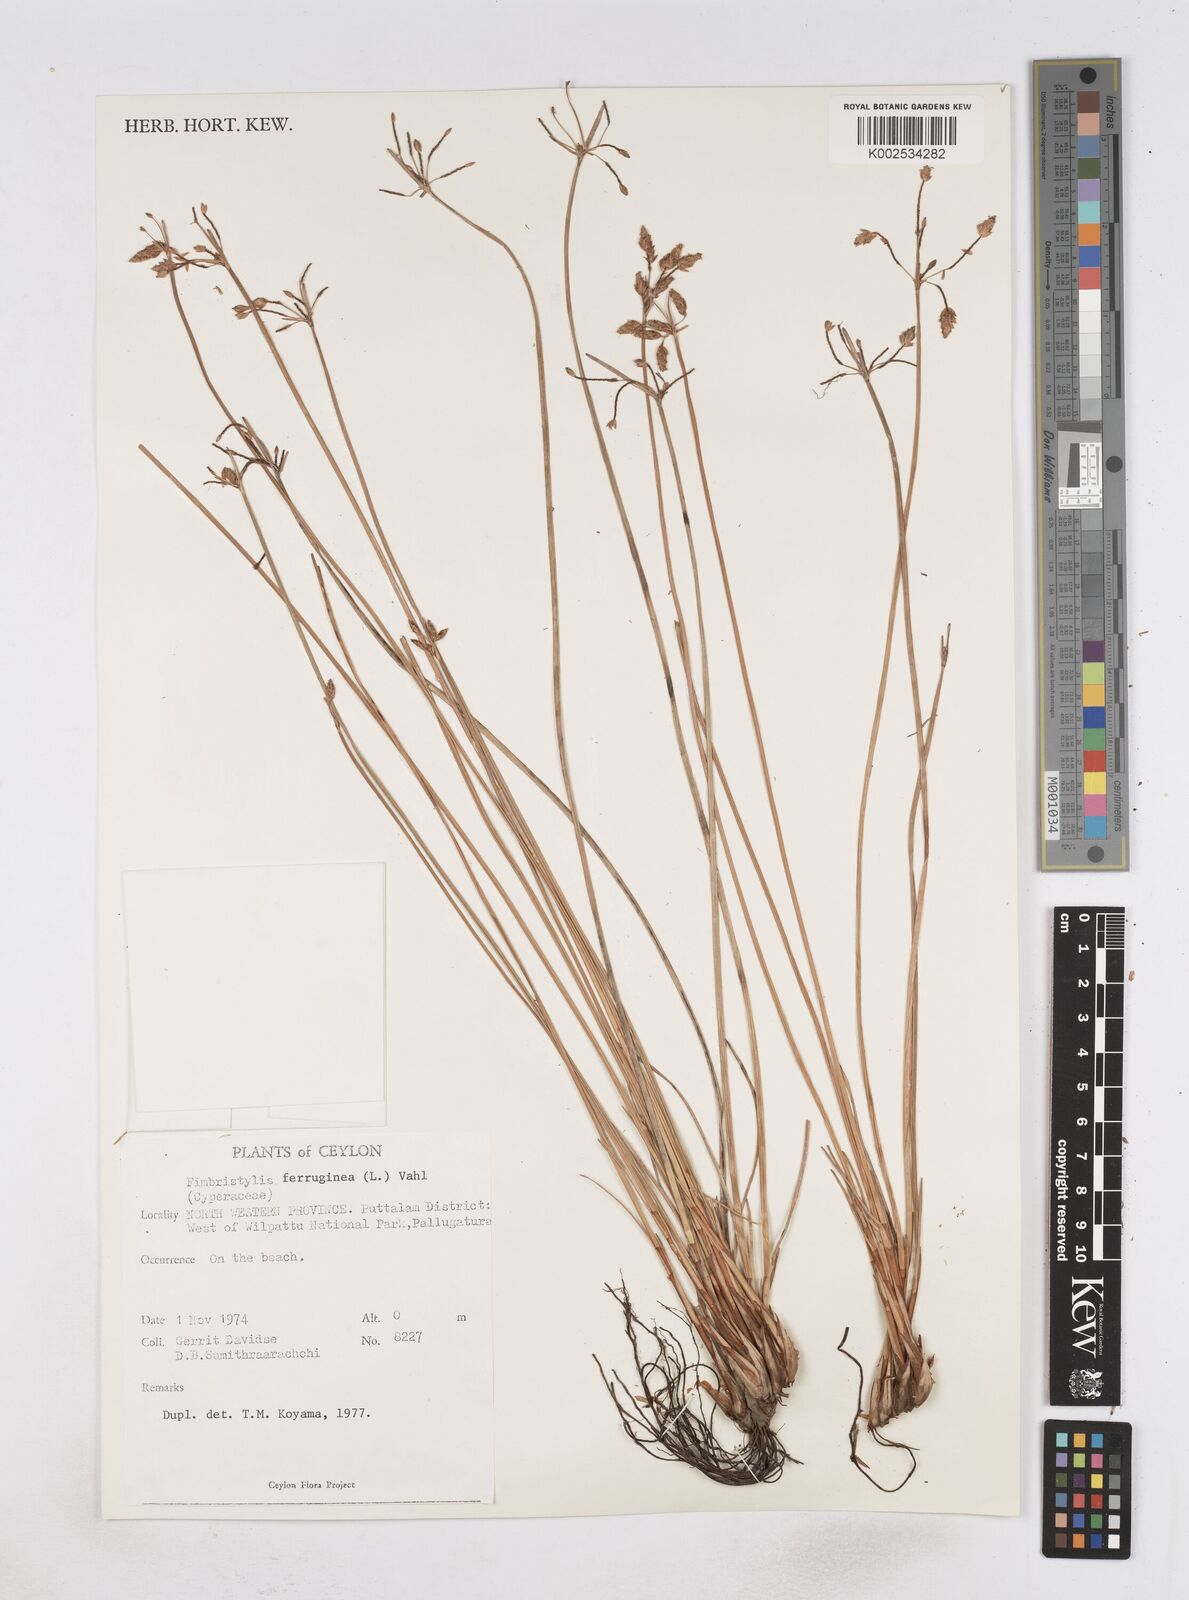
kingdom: Plantae
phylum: Tracheophyta
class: Liliopsida
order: Poales
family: Cyperaceae
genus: Fimbristylis
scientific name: Fimbristylis ferruginea
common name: West indian fimbry
